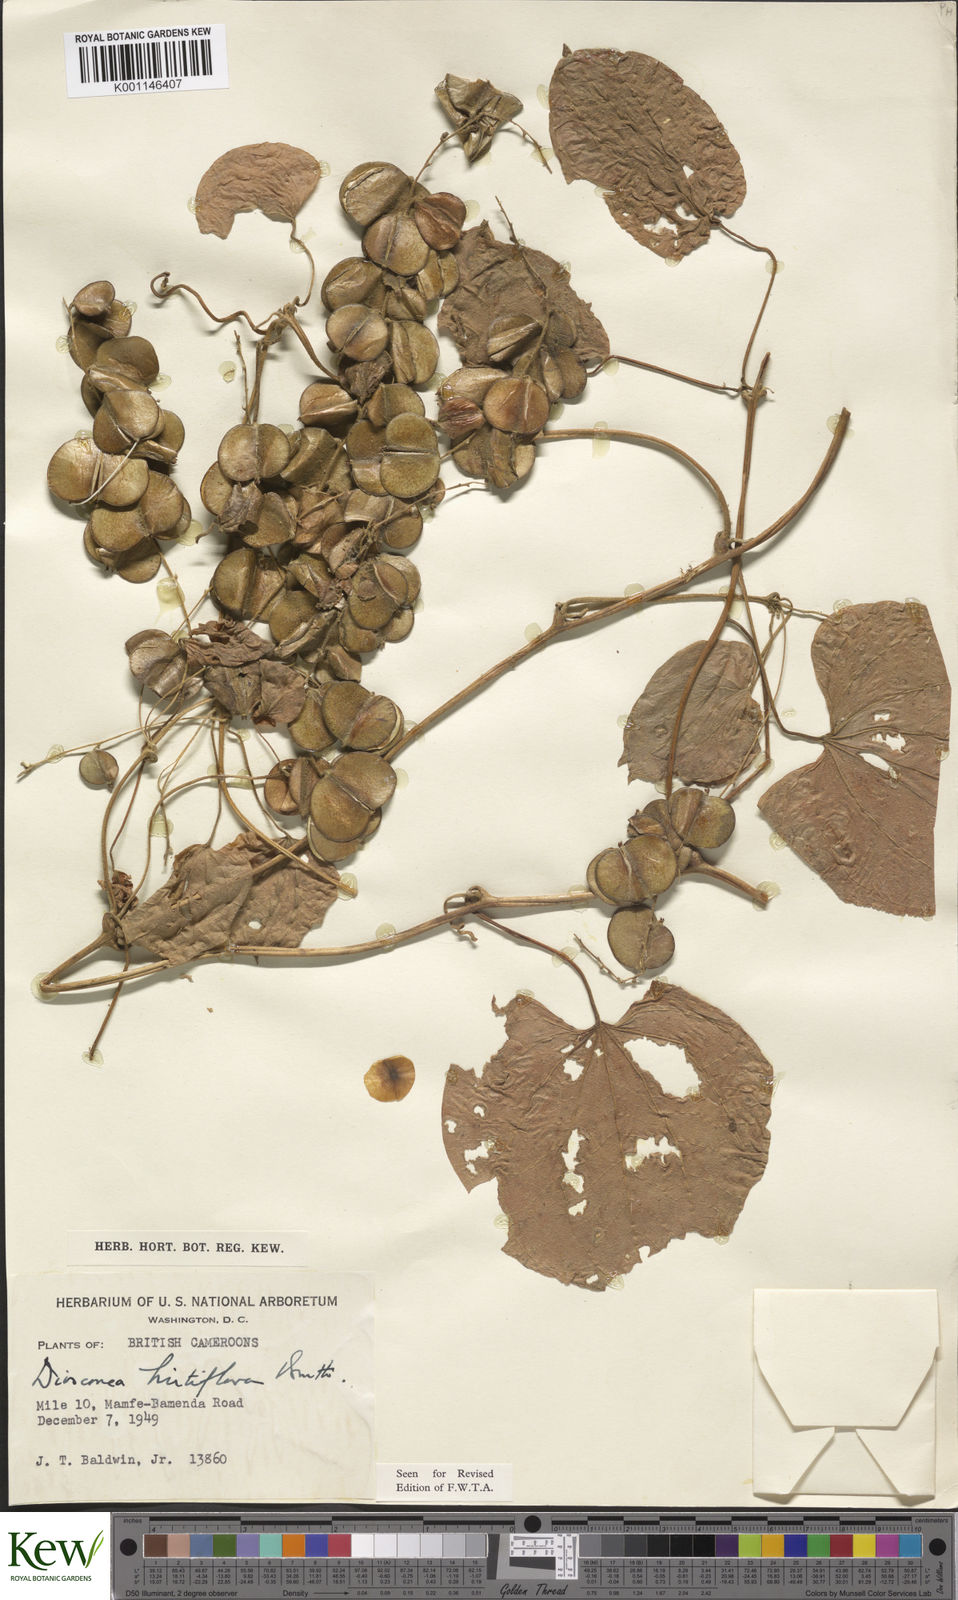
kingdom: Plantae
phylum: Tracheophyta
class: Liliopsida
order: Dioscoreales
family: Dioscoreaceae
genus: Dioscorea
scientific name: Dioscorea hirtiflora
